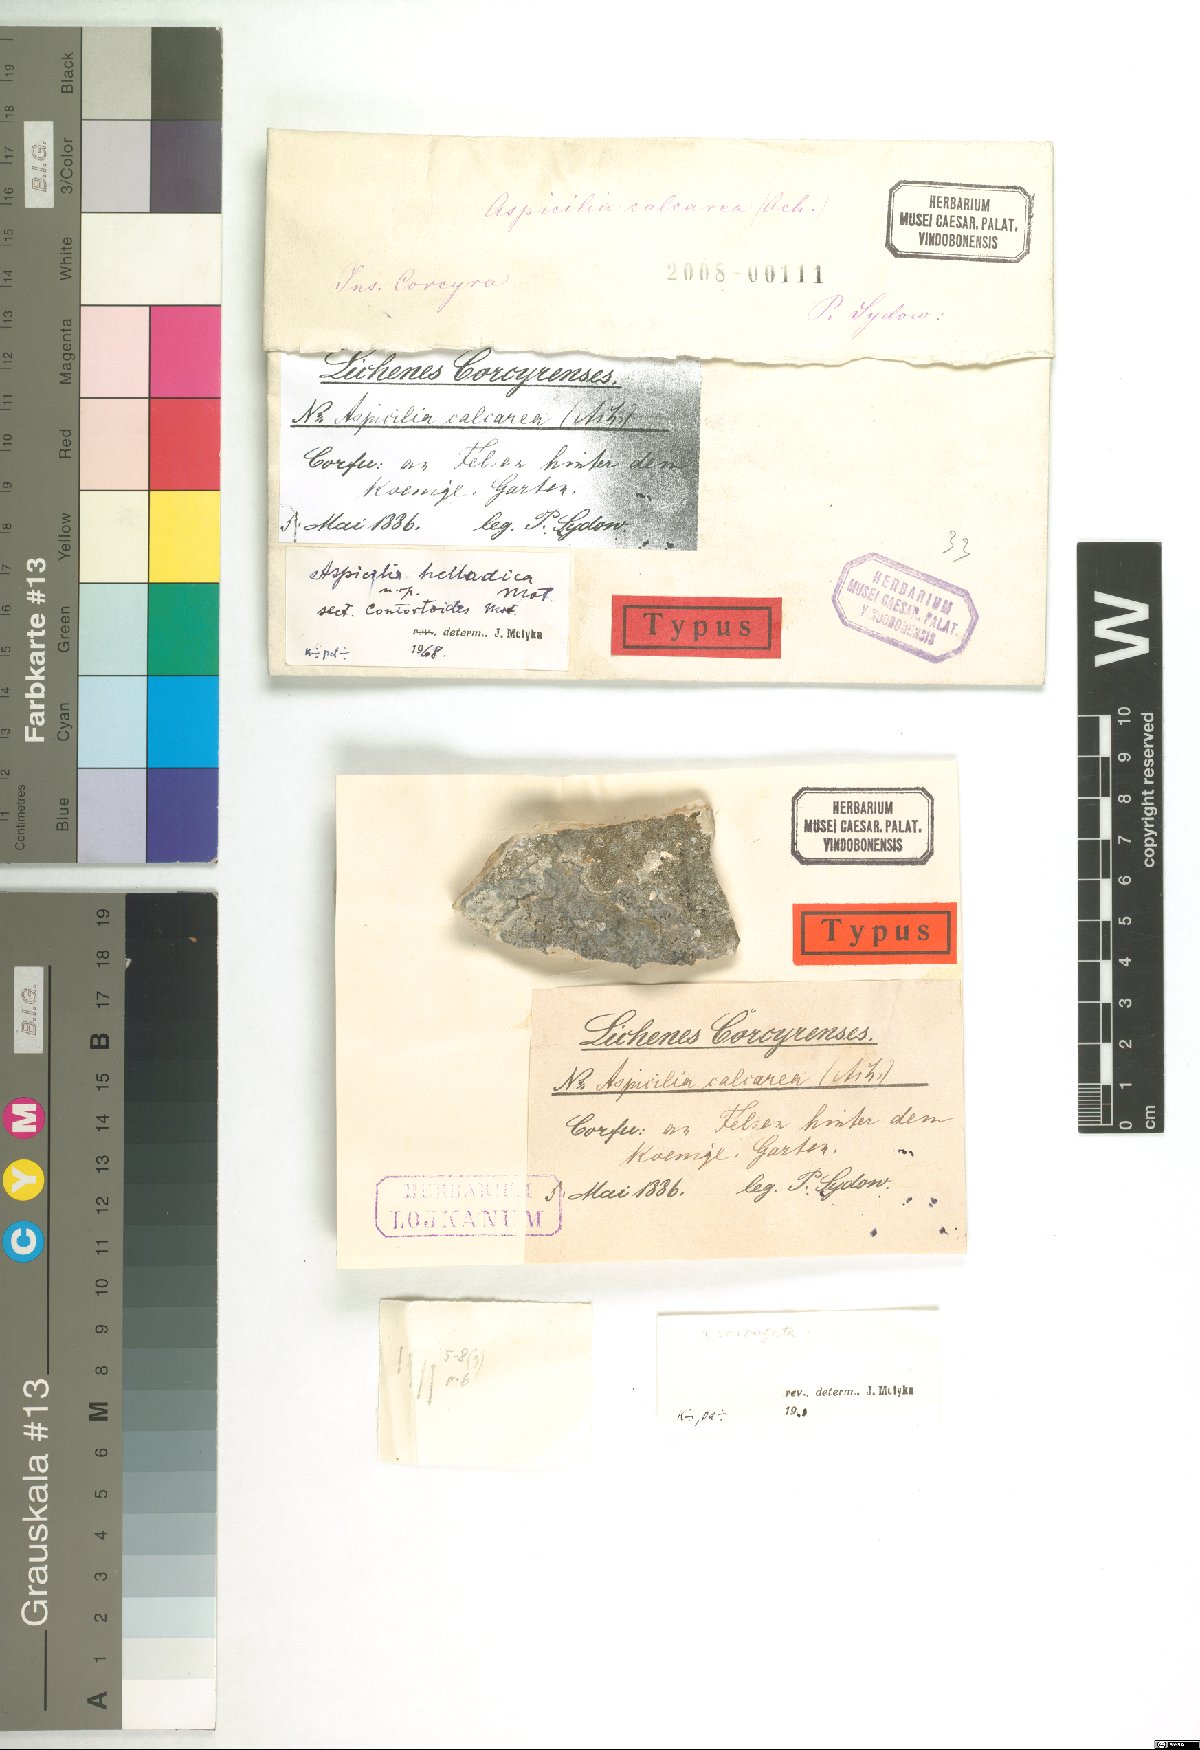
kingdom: Fungi
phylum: Ascomycota
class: Lecanoromycetes
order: Hymeneliales
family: Hymeneliaceae
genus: Aspicilia
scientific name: Aspicilia
